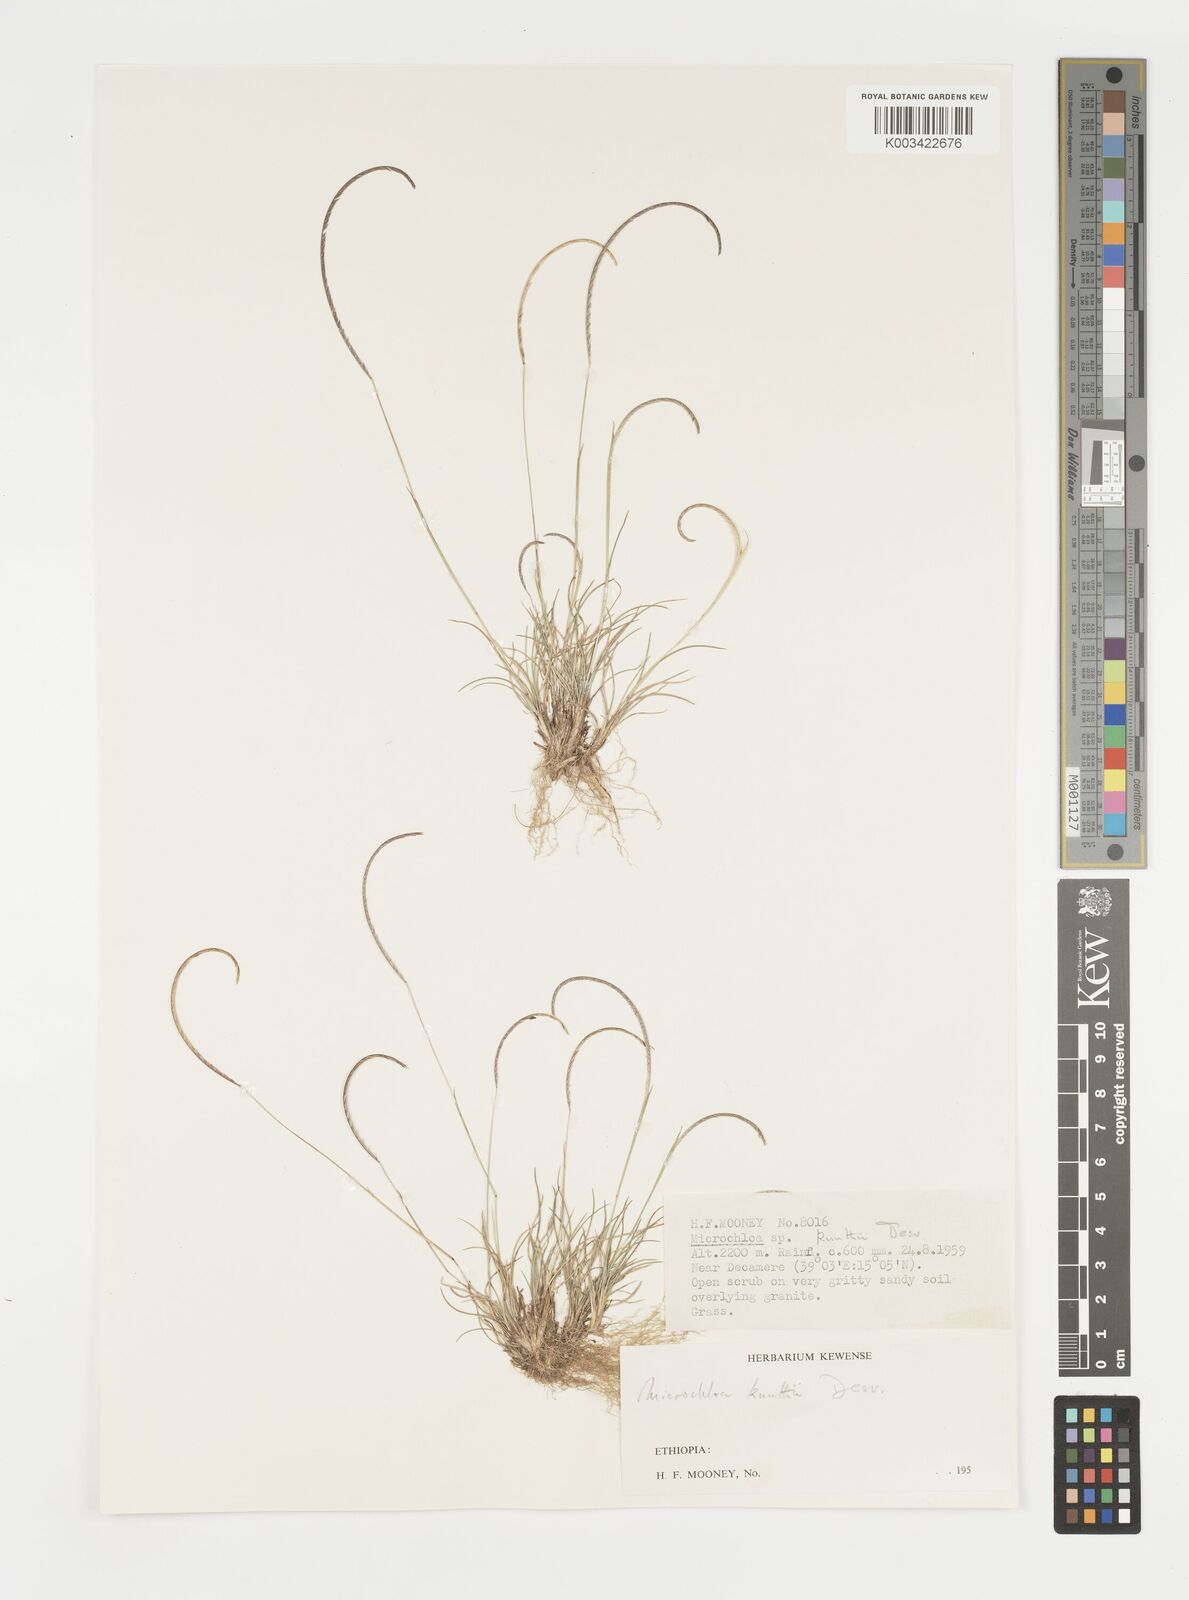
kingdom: Plantae
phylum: Tracheophyta
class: Liliopsida
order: Poales
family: Poaceae
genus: Microchloa
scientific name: Microchloa kunthii
